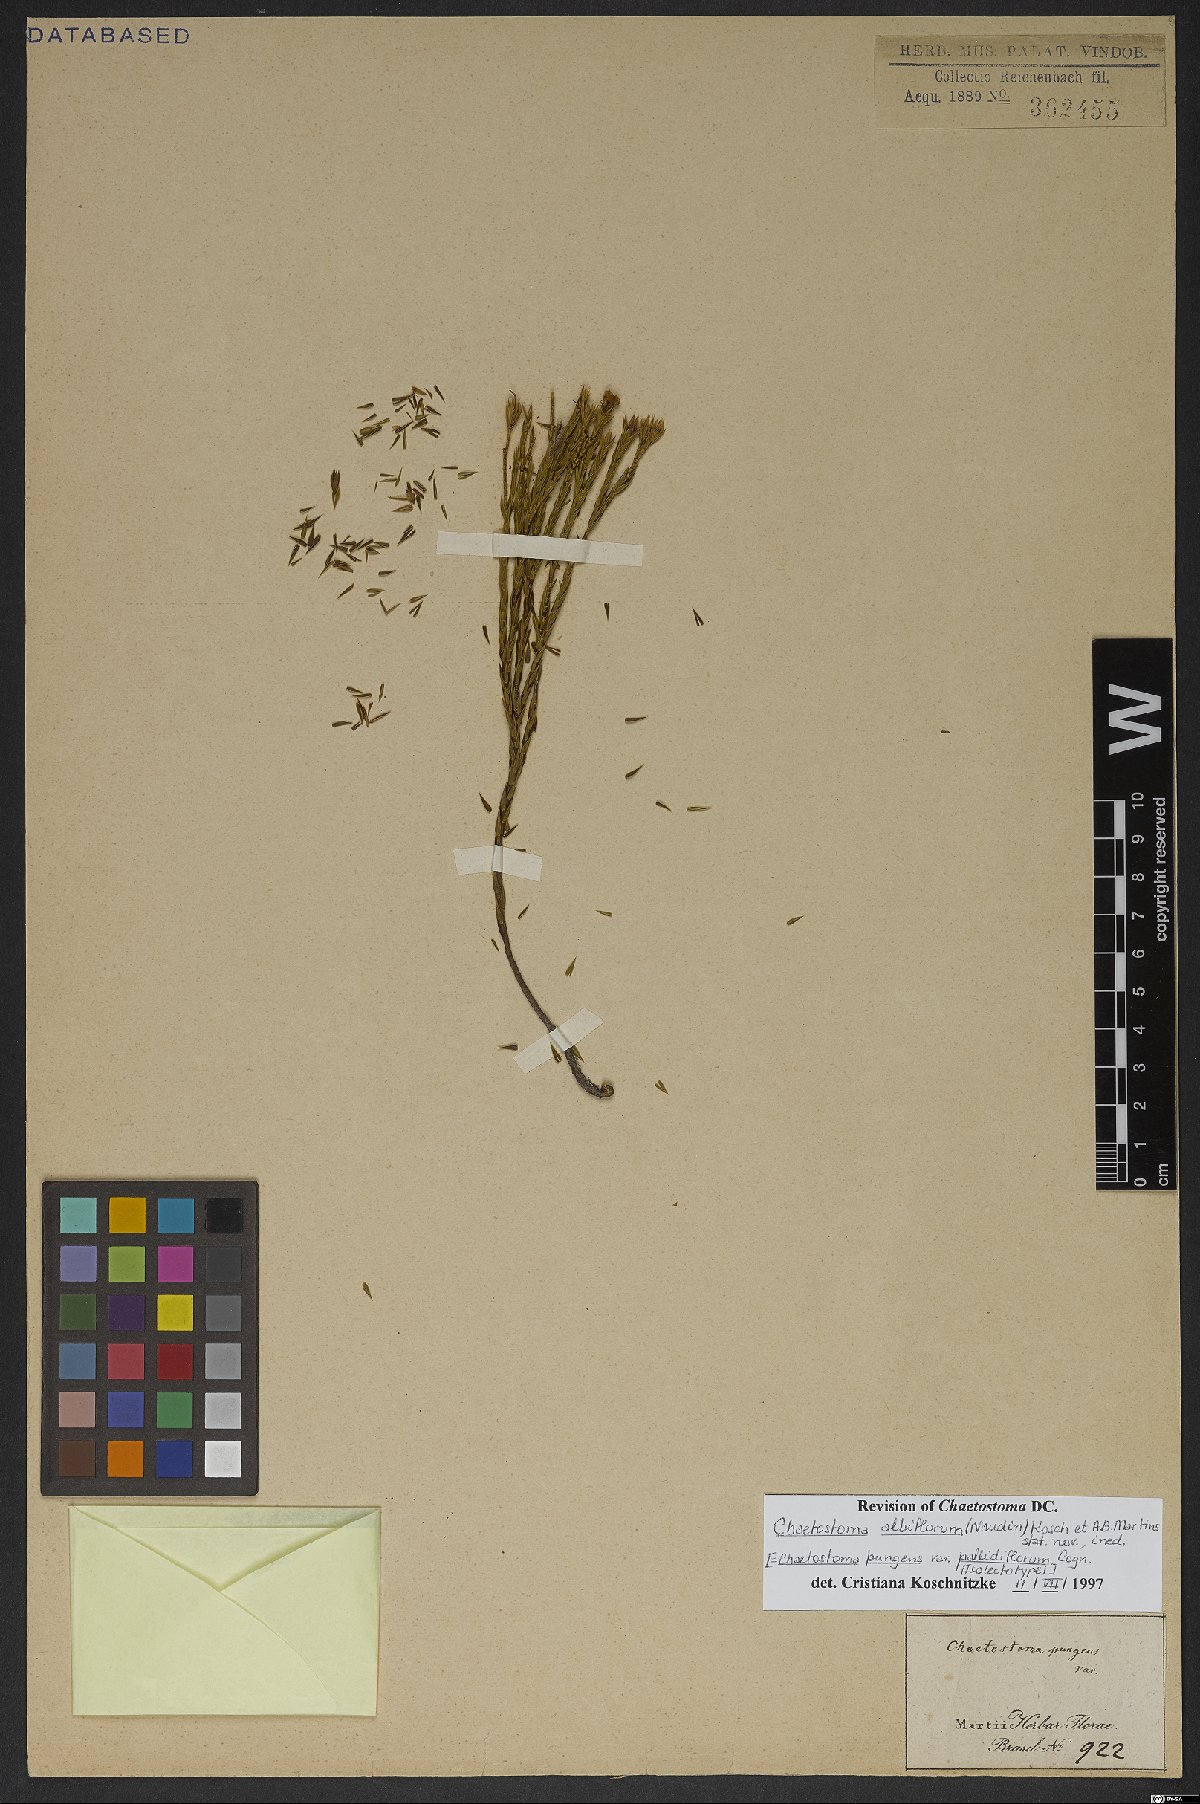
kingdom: Plantae
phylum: Tracheophyta
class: Magnoliopsida
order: Myrtales
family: Melastomataceae
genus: Microlicia
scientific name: Microlicia albiflora
